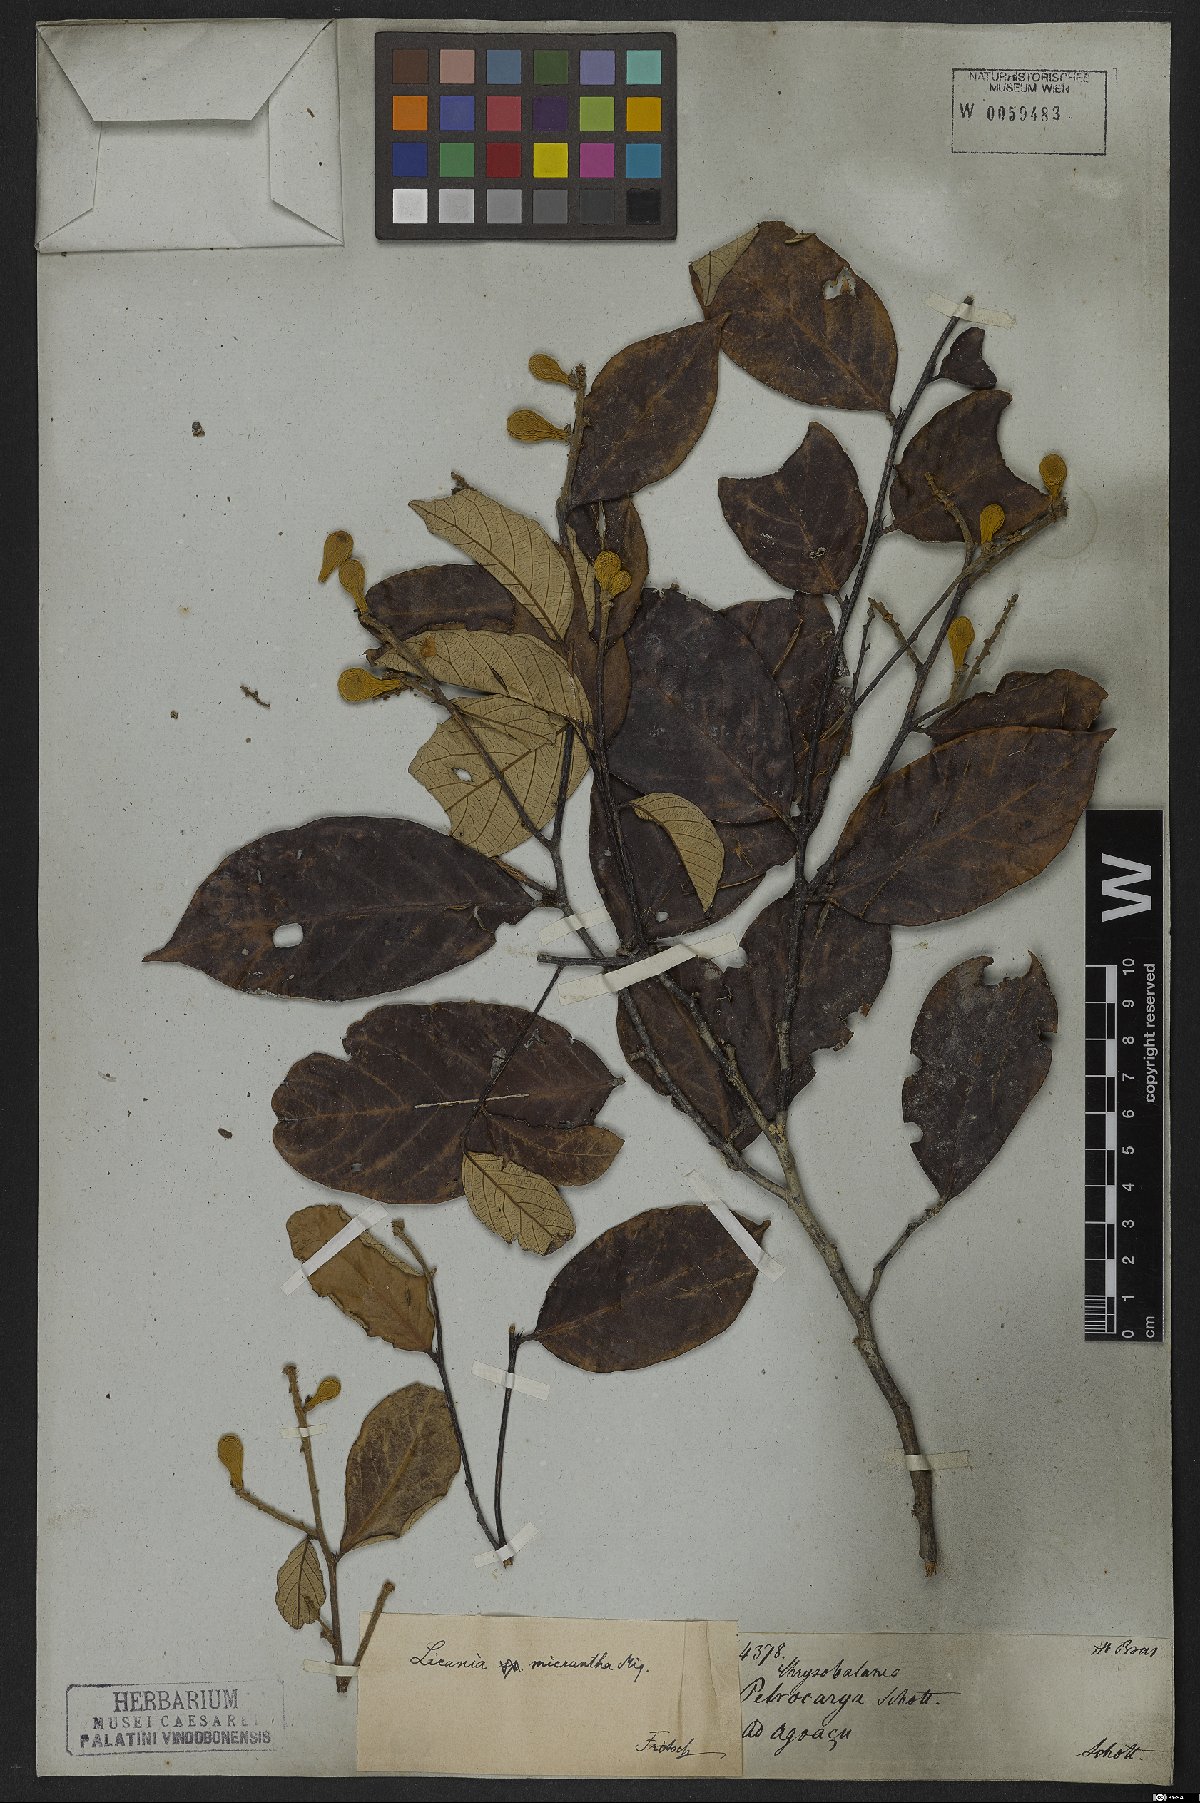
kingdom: Plantae
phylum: Tracheophyta
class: Magnoliopsida
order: Malpighiales
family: Chrysobalanaceae
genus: Licania
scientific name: Licania micrantha
